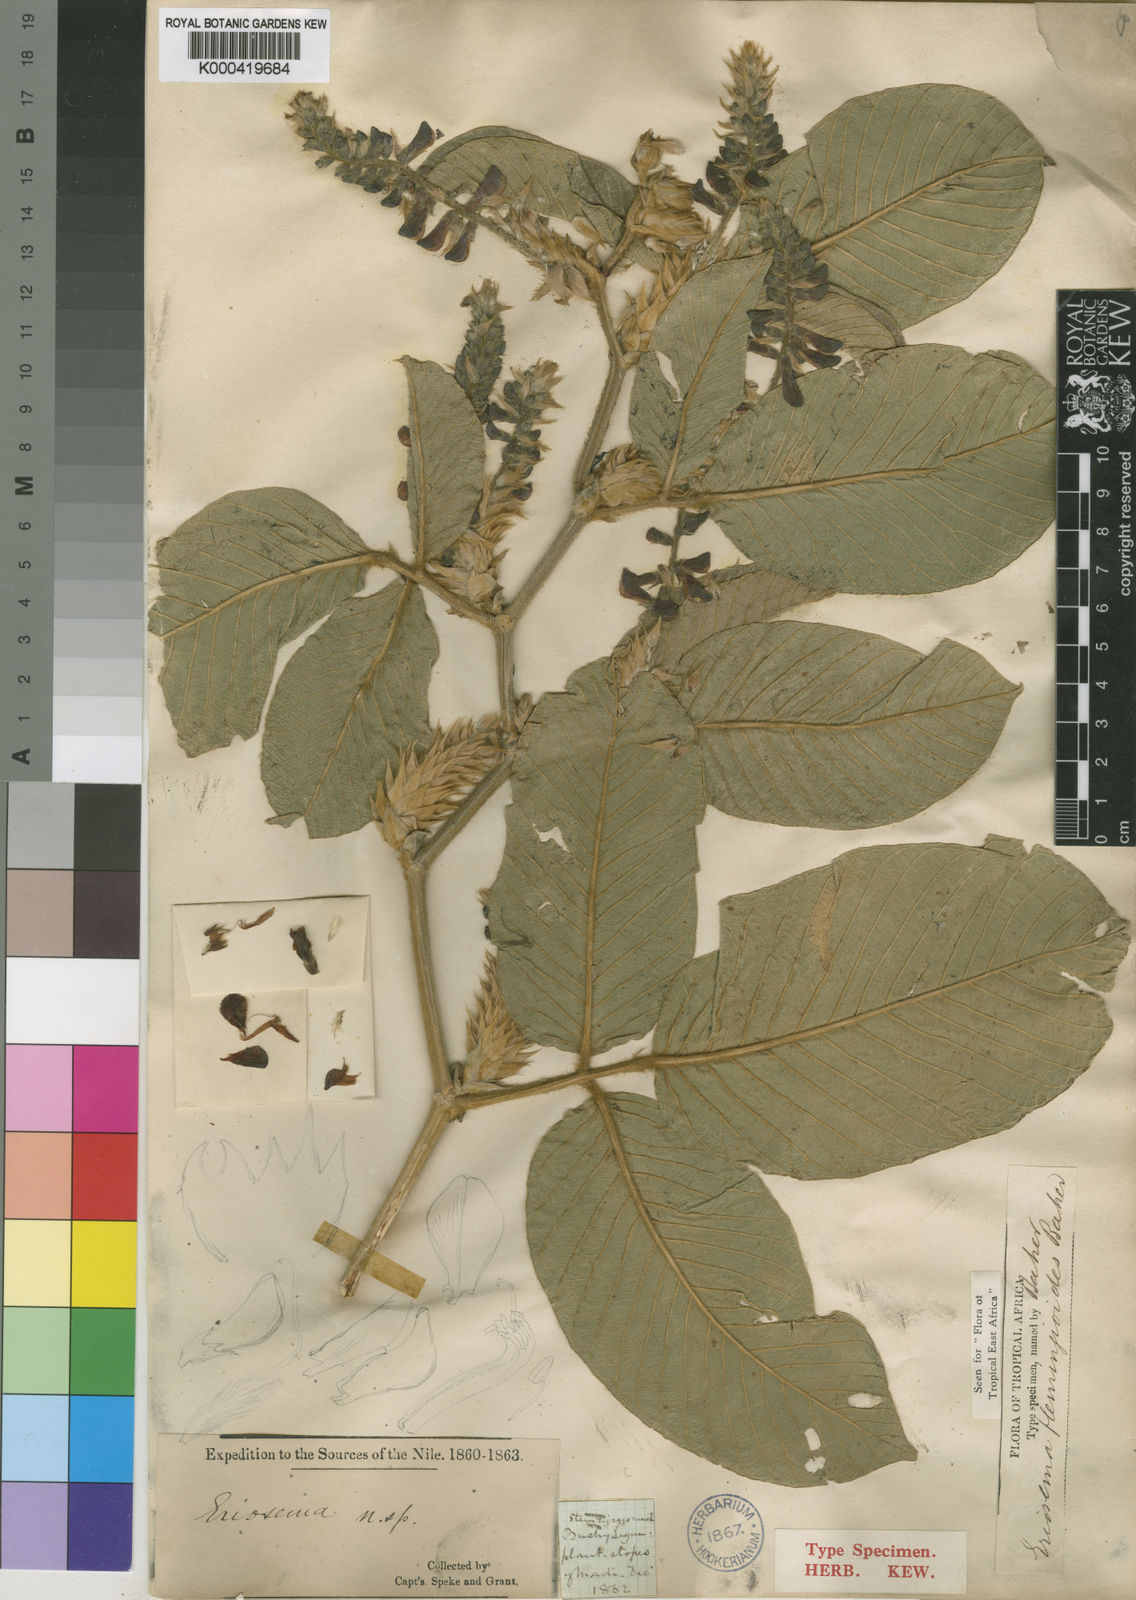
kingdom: Plantae
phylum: Tracheophyta
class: Magnoliopsida
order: Fabales
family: Fabaceae
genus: Eriosema
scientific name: Eriosema flemingioides
